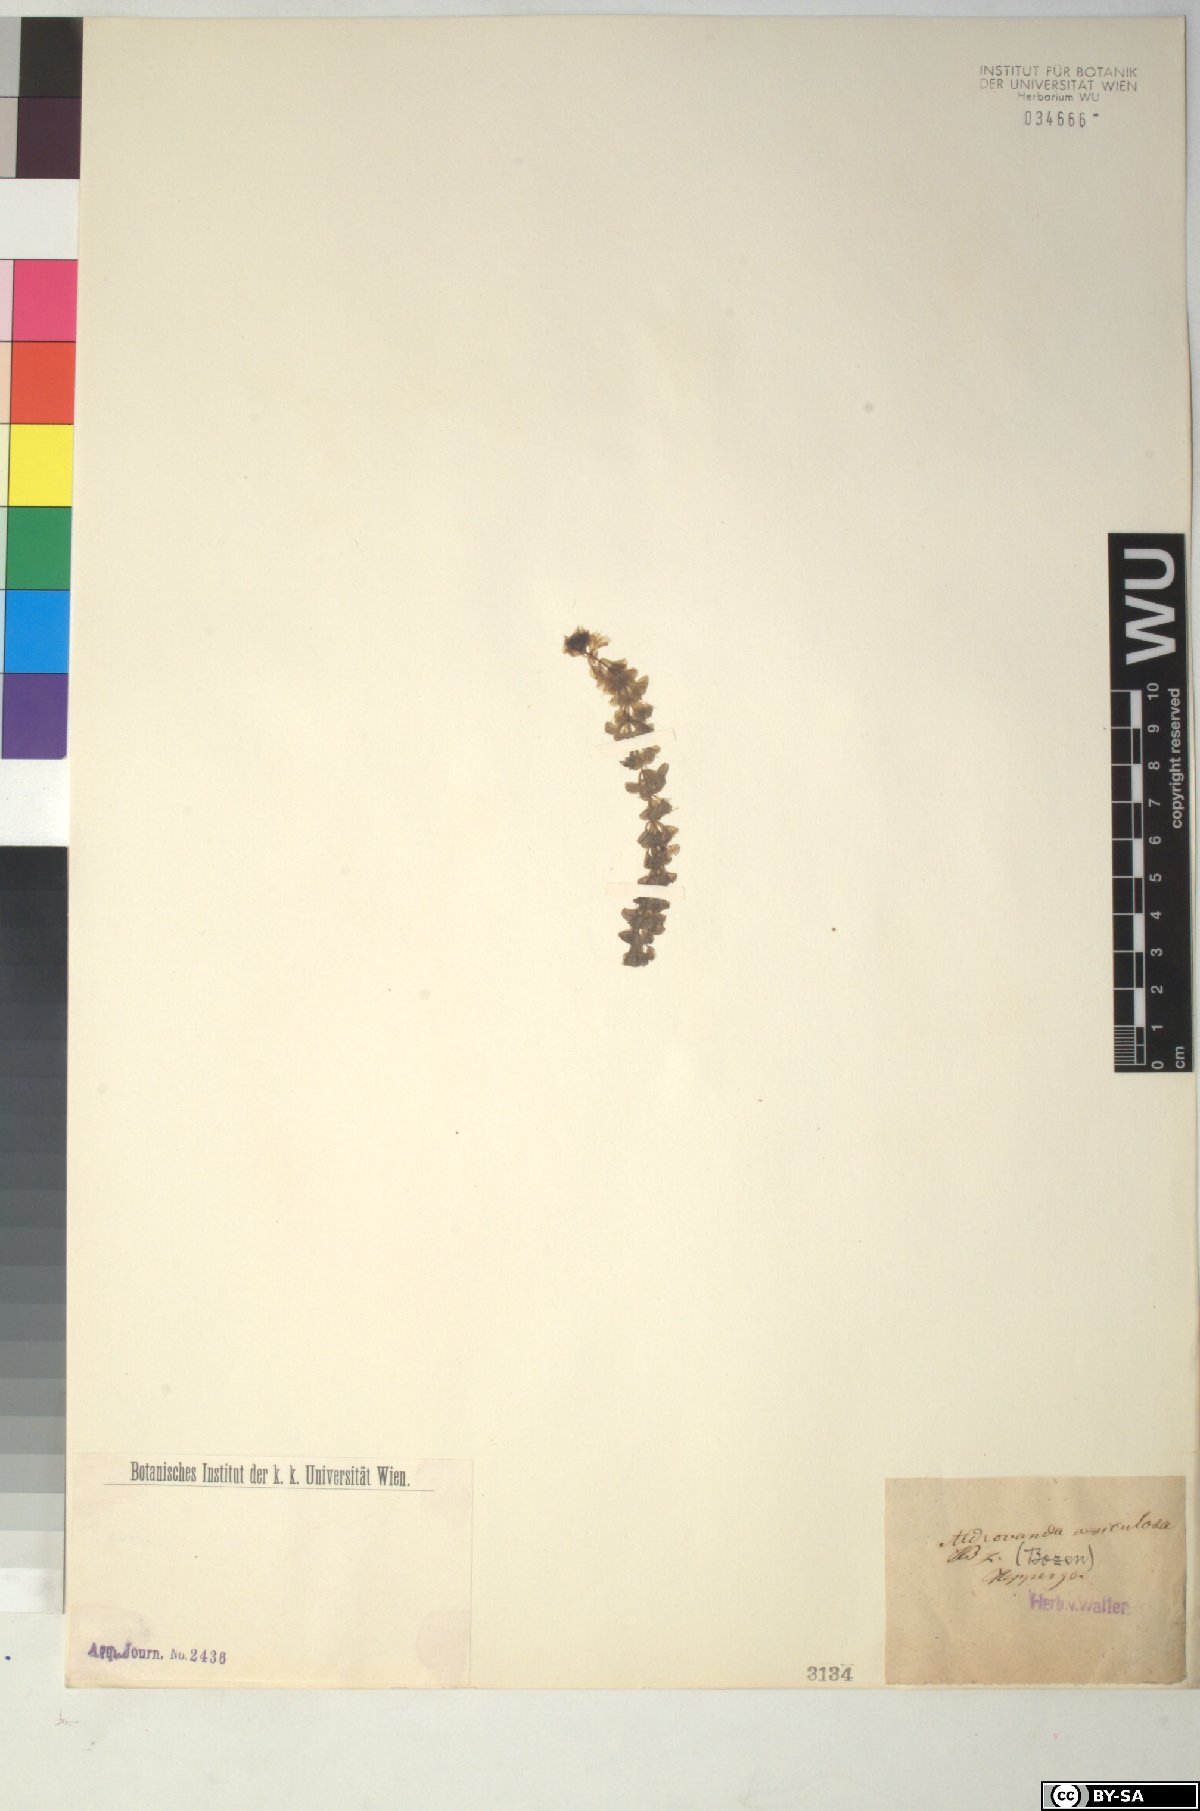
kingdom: Plantae
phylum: Tracheophyta
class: Magnoliopsida
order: Caryophyllales
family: Droseraceae
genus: Aldrovanda
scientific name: Aldrovanda vesiculosa
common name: Waterwheel plant
